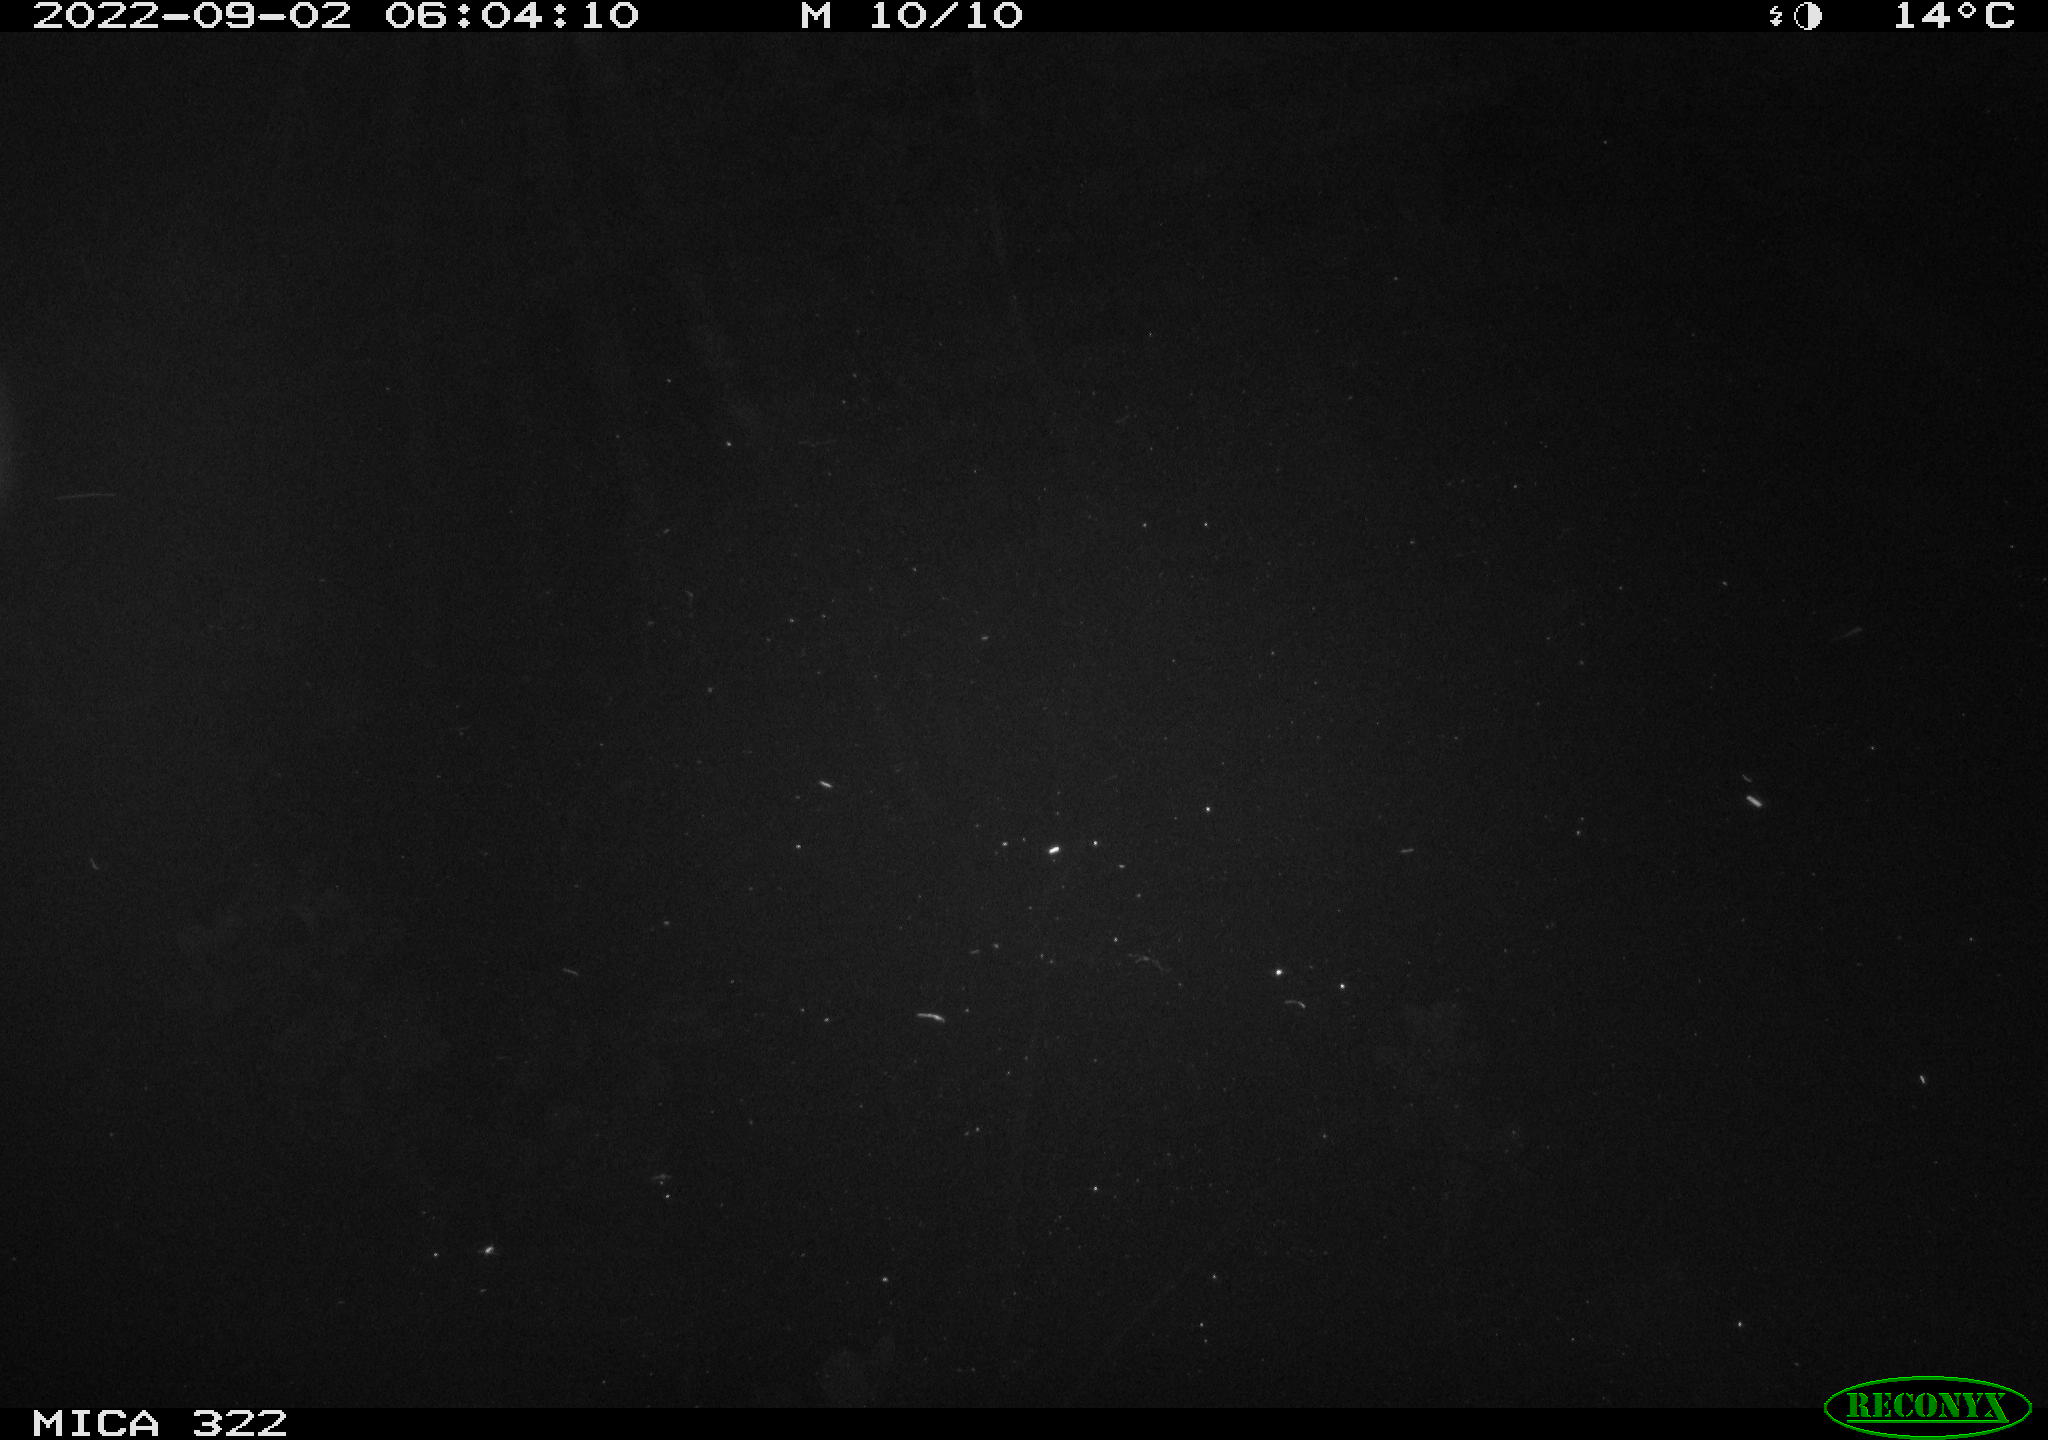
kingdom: Animalia
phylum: Chordata
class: Mammalia
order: Rodentia
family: Cricetidae
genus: Ondatra
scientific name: Ondatra zibethicus
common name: Muskrat
